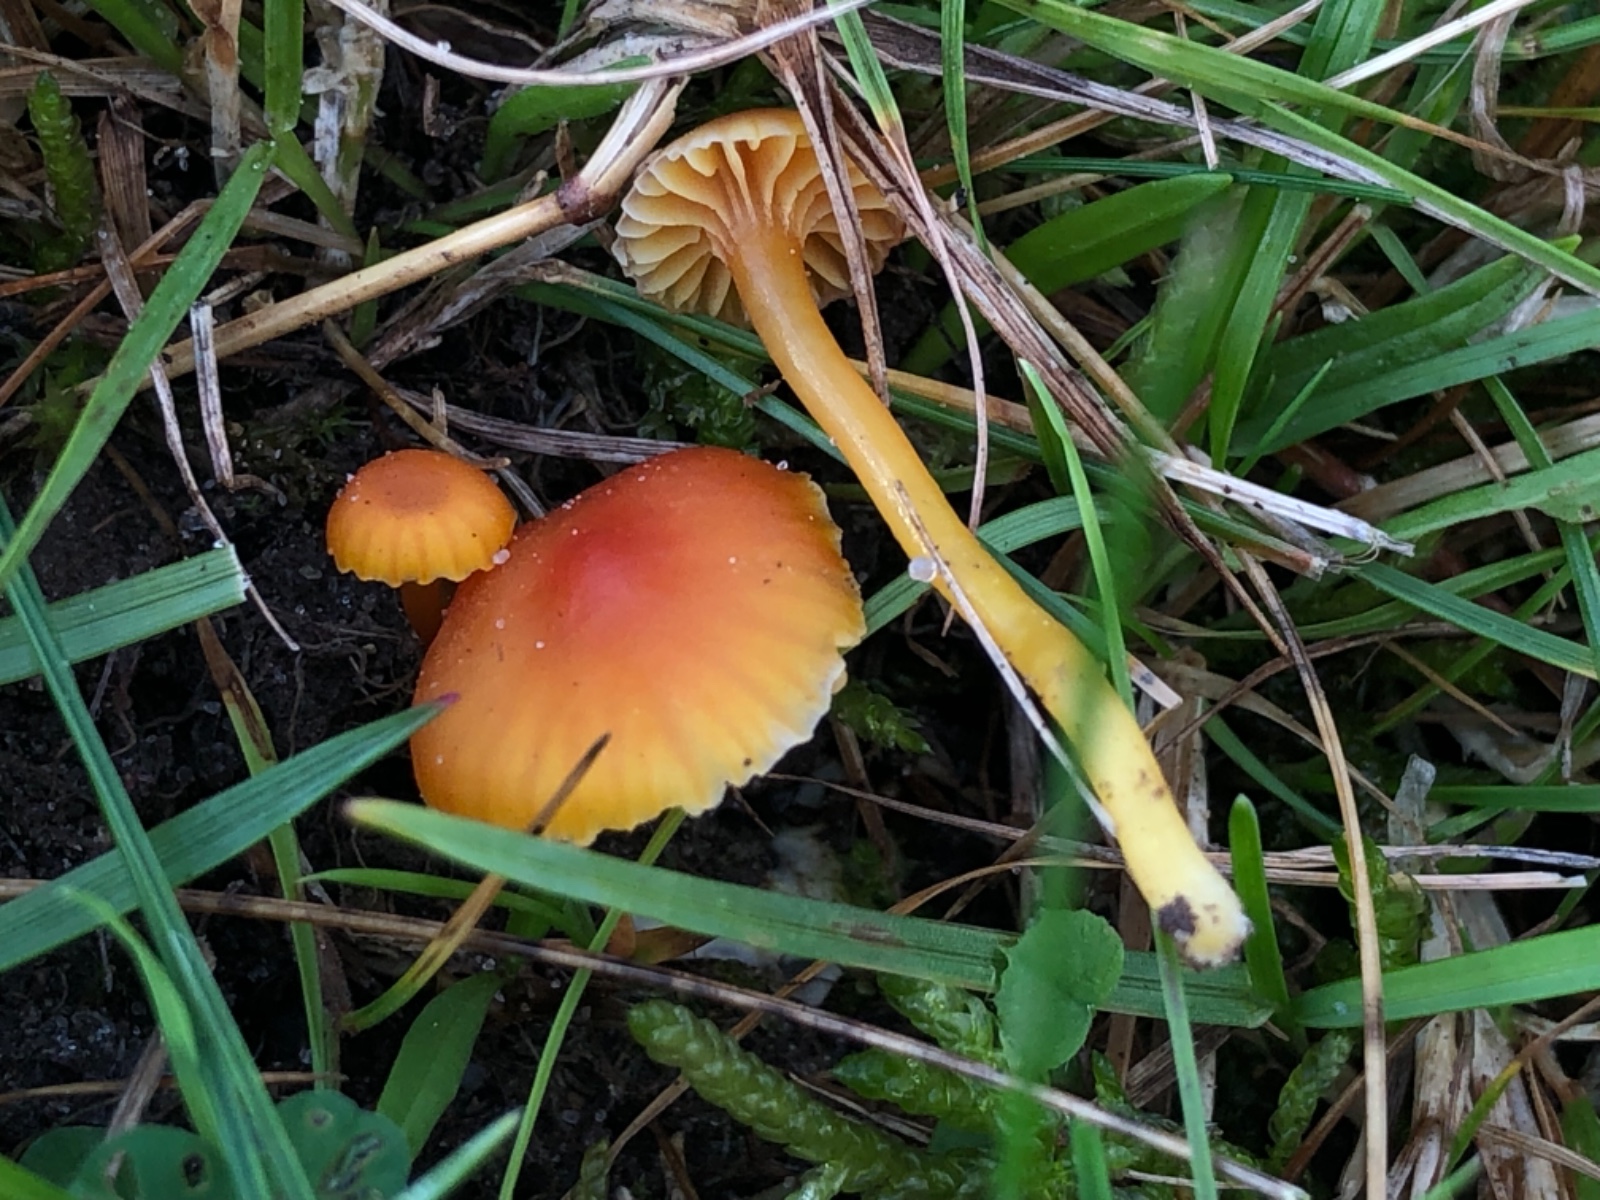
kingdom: Fungi
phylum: Basidiomycota
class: Agaricomycetes
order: Agaricales
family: Hygrophoraceae
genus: Hygrocybe
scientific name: Hygrocybe
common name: vokshat
